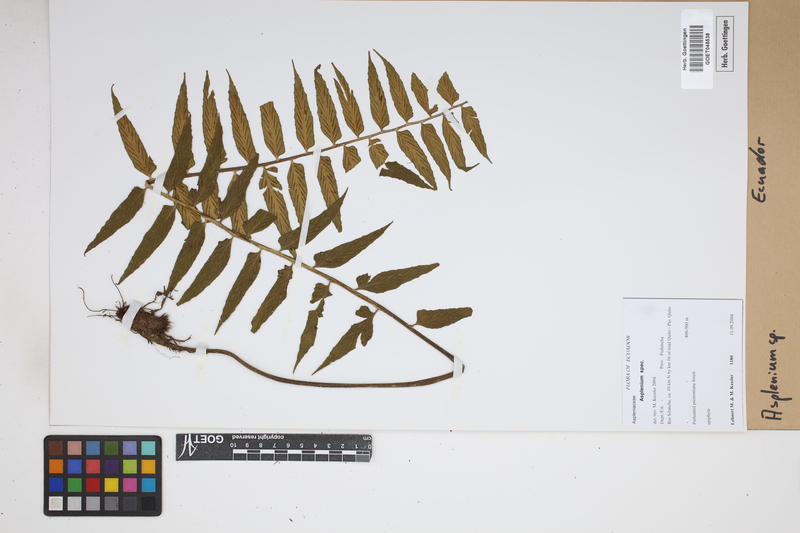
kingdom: Plantae
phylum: Tracheophyta
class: Polypodiopsida
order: Polypodiales
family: Aspleniaceae
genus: Asplenium
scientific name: Asplenium
